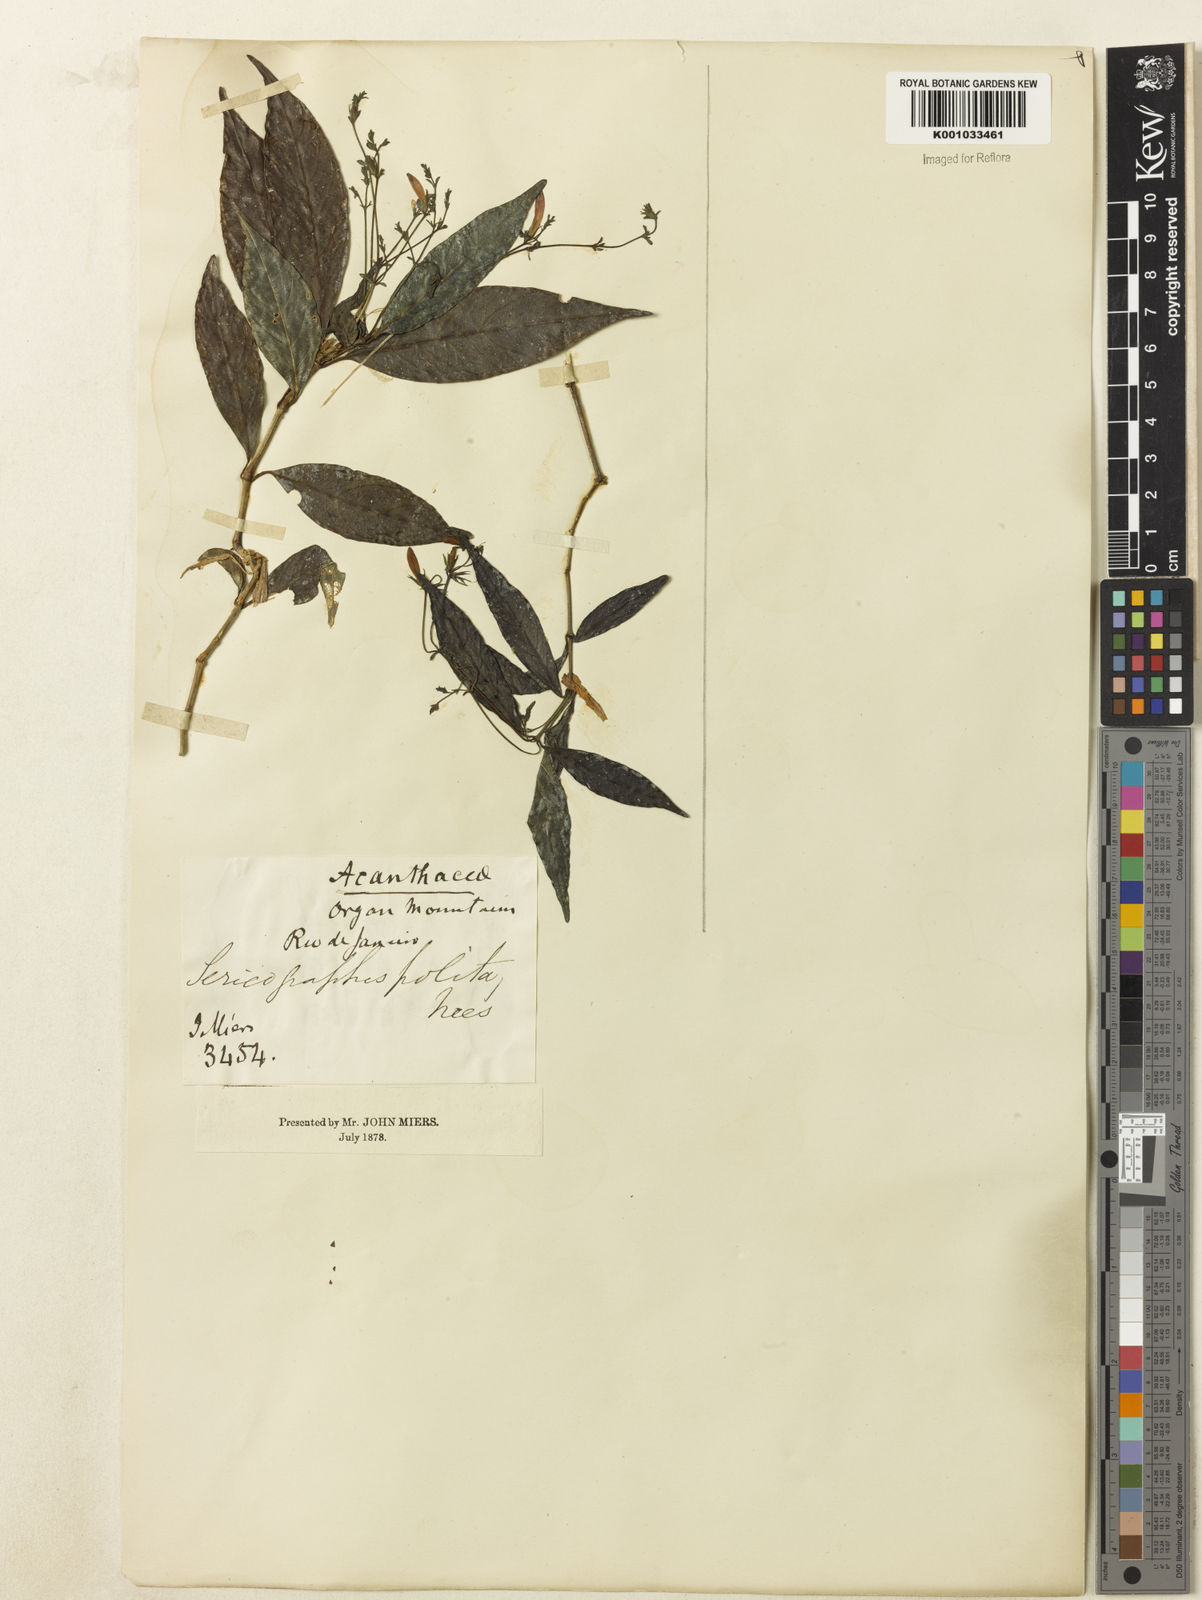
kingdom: Plantae
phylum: Tracheophyta
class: Magnoliopsida
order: Lamiales
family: Acanthaceae
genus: Justicia
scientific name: Justicia polita
